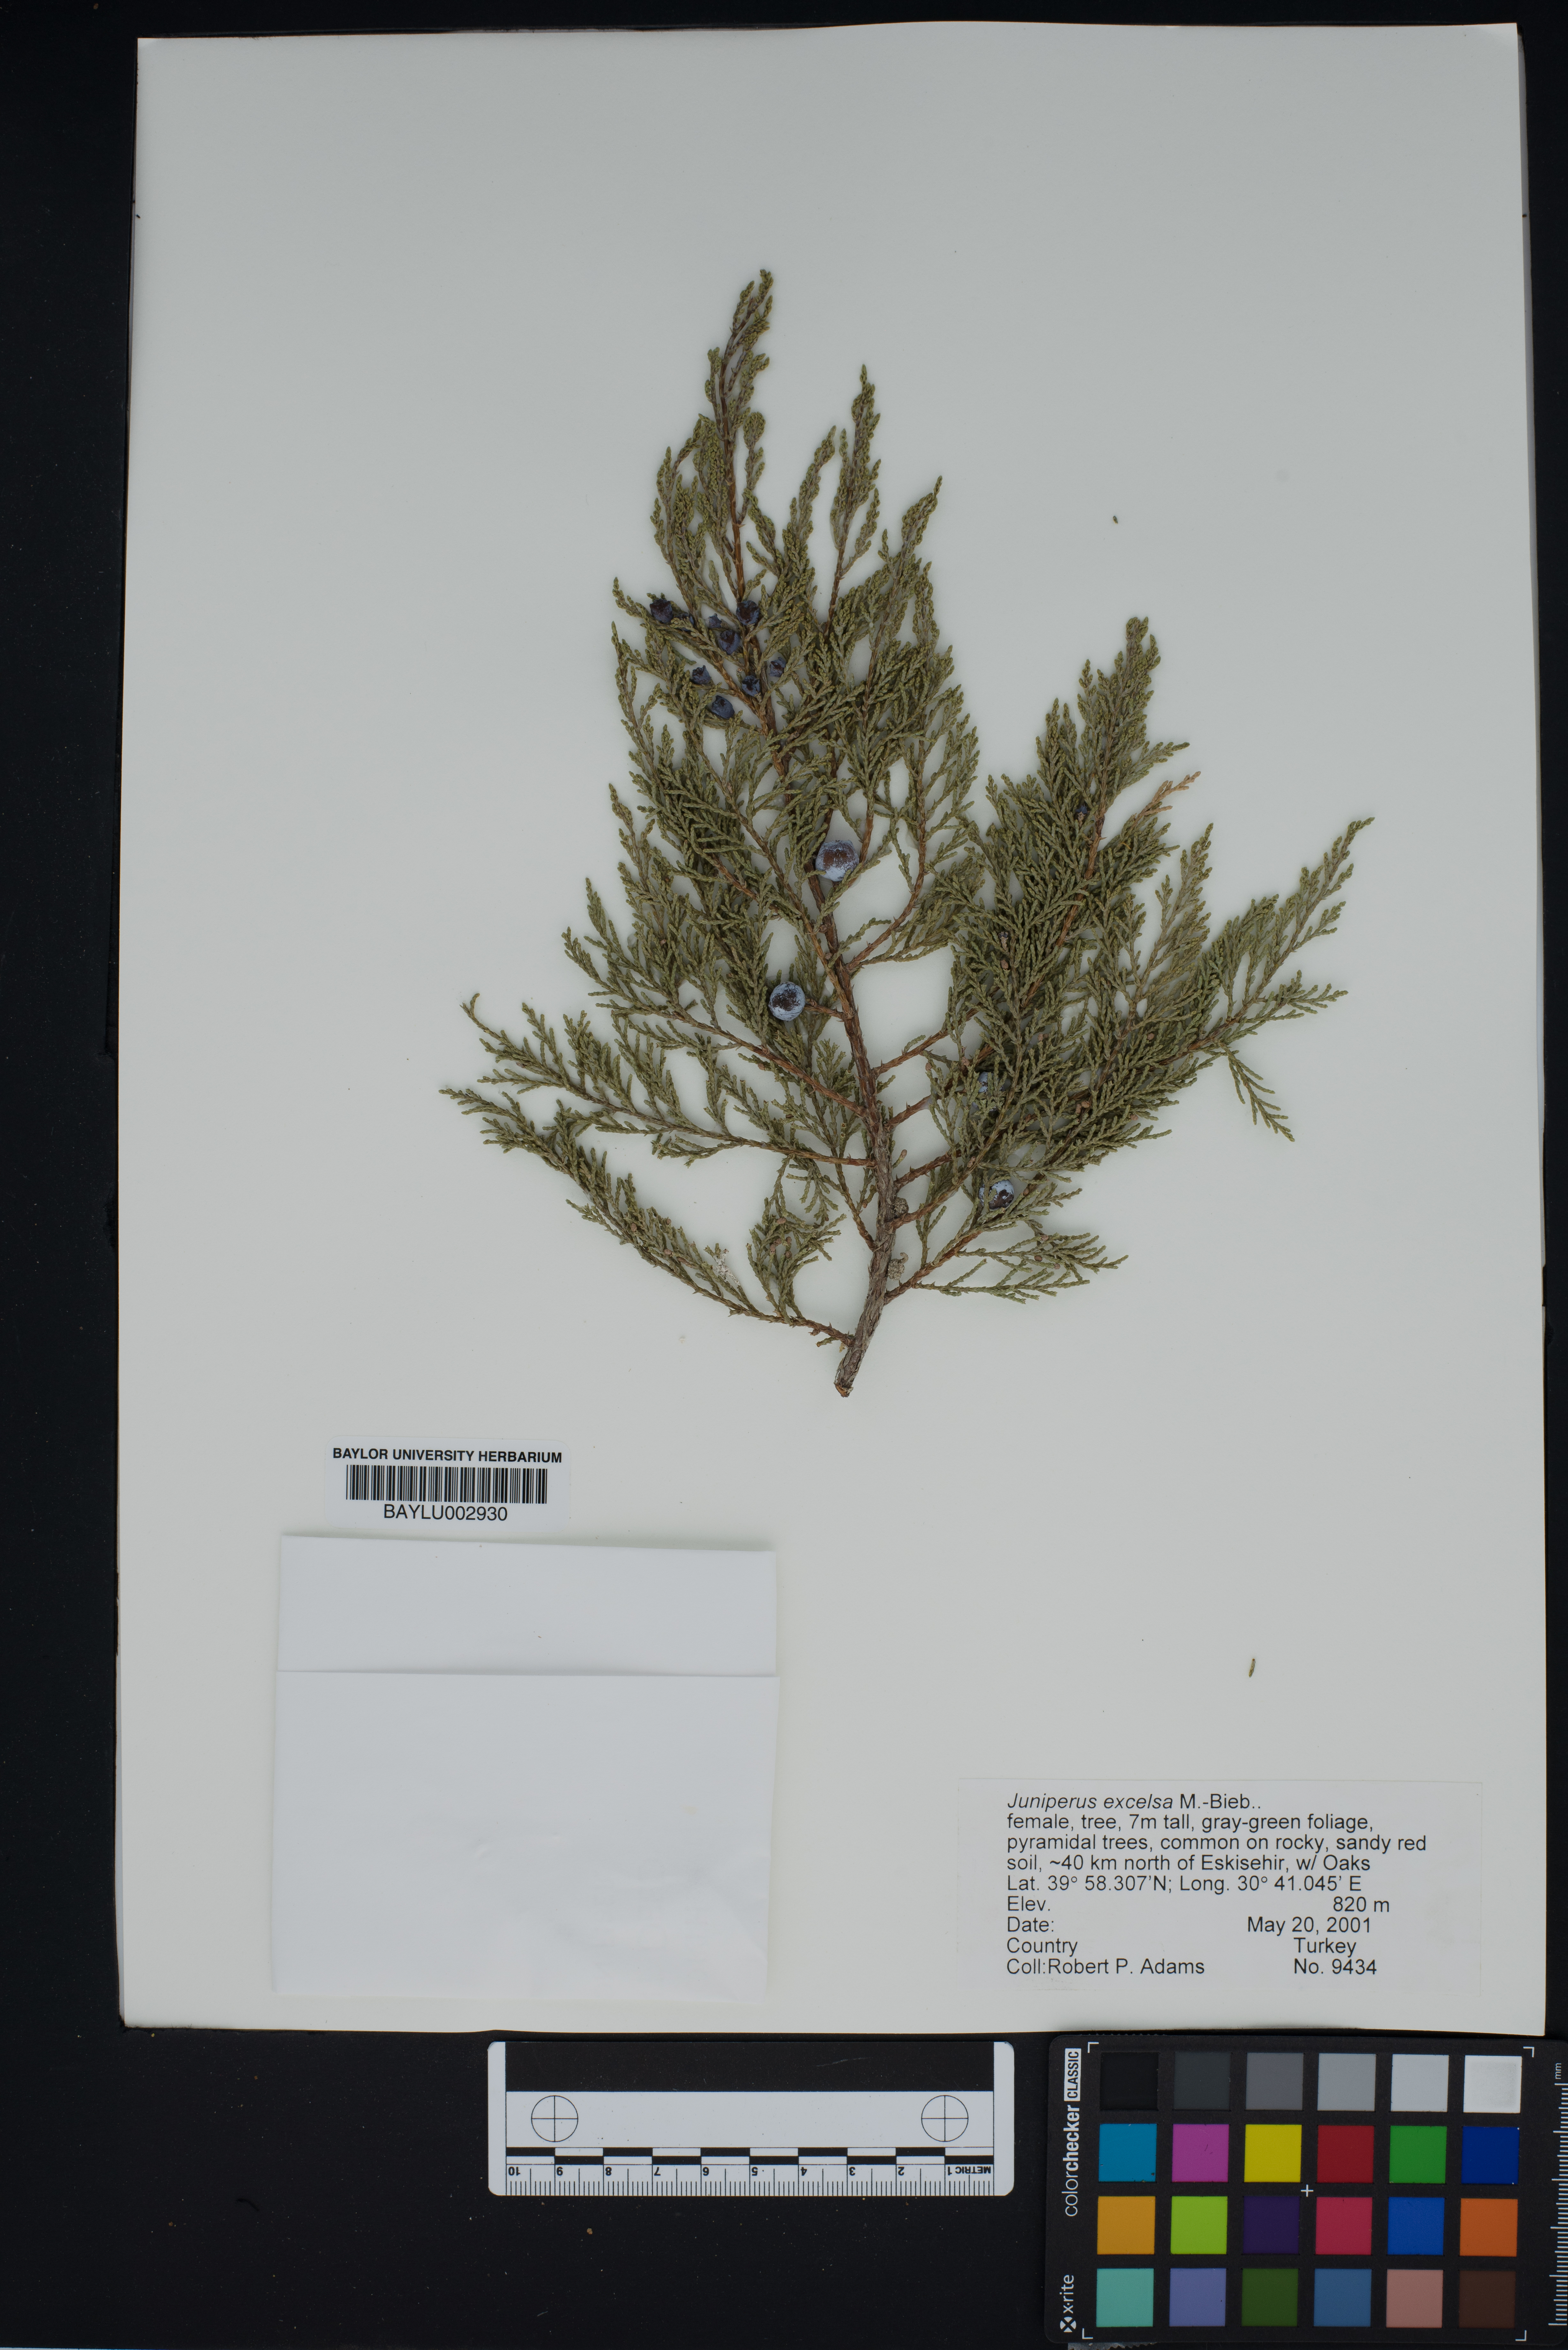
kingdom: Plantae
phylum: Tracheophyta
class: Pinopsida
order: Pinales
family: Cupressaceae
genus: Juniperus
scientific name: Juniperus excelsa
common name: Crimean juniper
